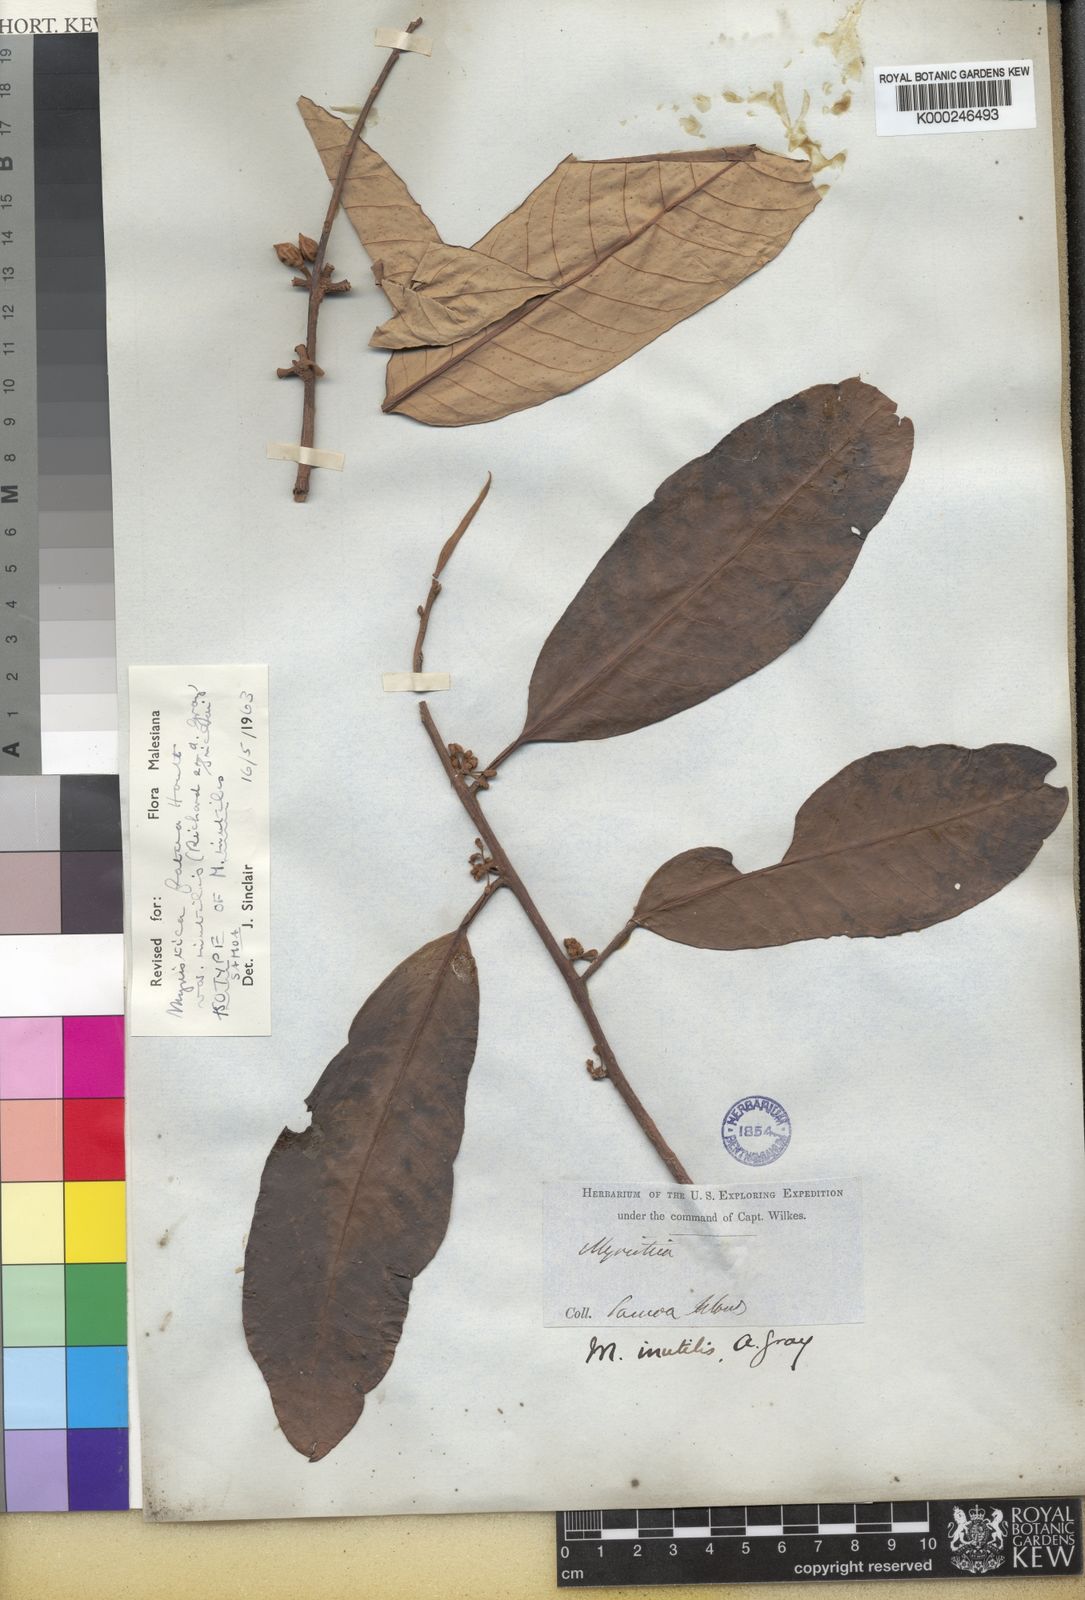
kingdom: Plantae
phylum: Tracheophyta
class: Magnoliopsida
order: Magnoliales
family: Myristicaceae
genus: Myristica
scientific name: Myristica fatua
